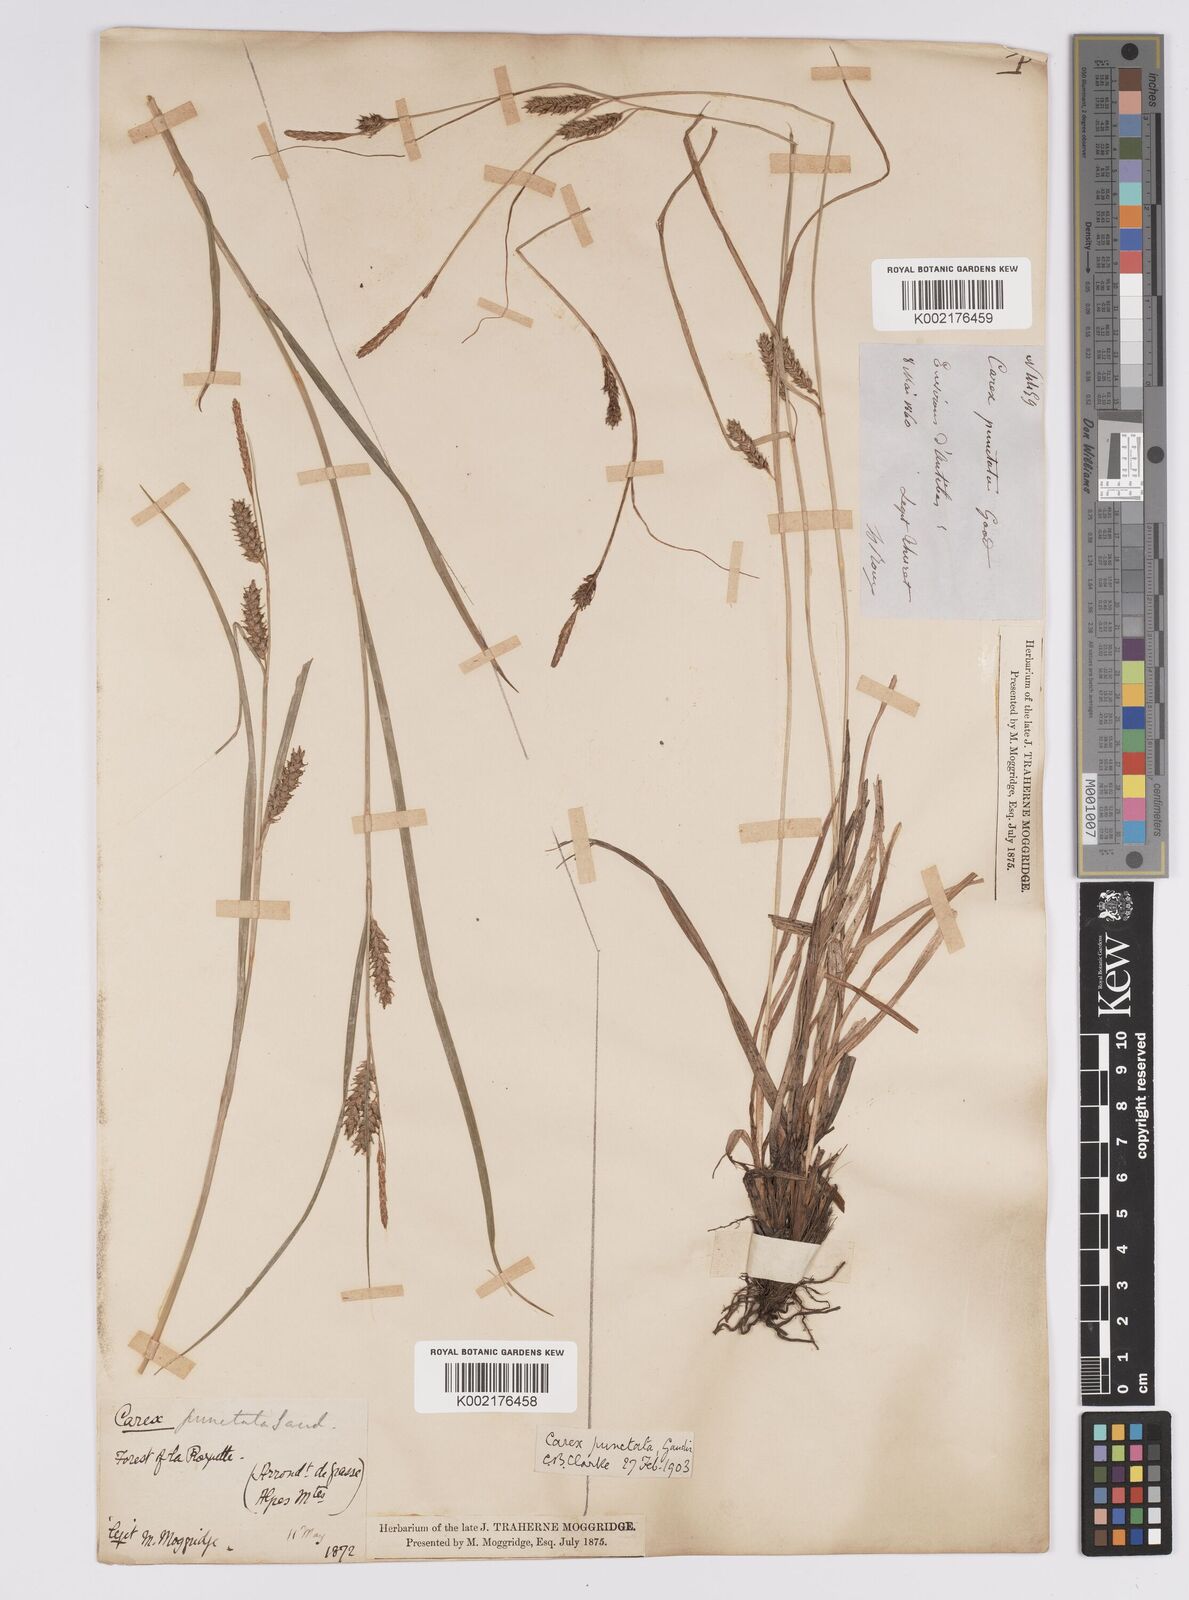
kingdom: Plantae
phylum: Tracheophyta
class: Liliopsida
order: Poales
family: Cyperaceae
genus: Carex
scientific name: Carex distans
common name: Distant sedge
